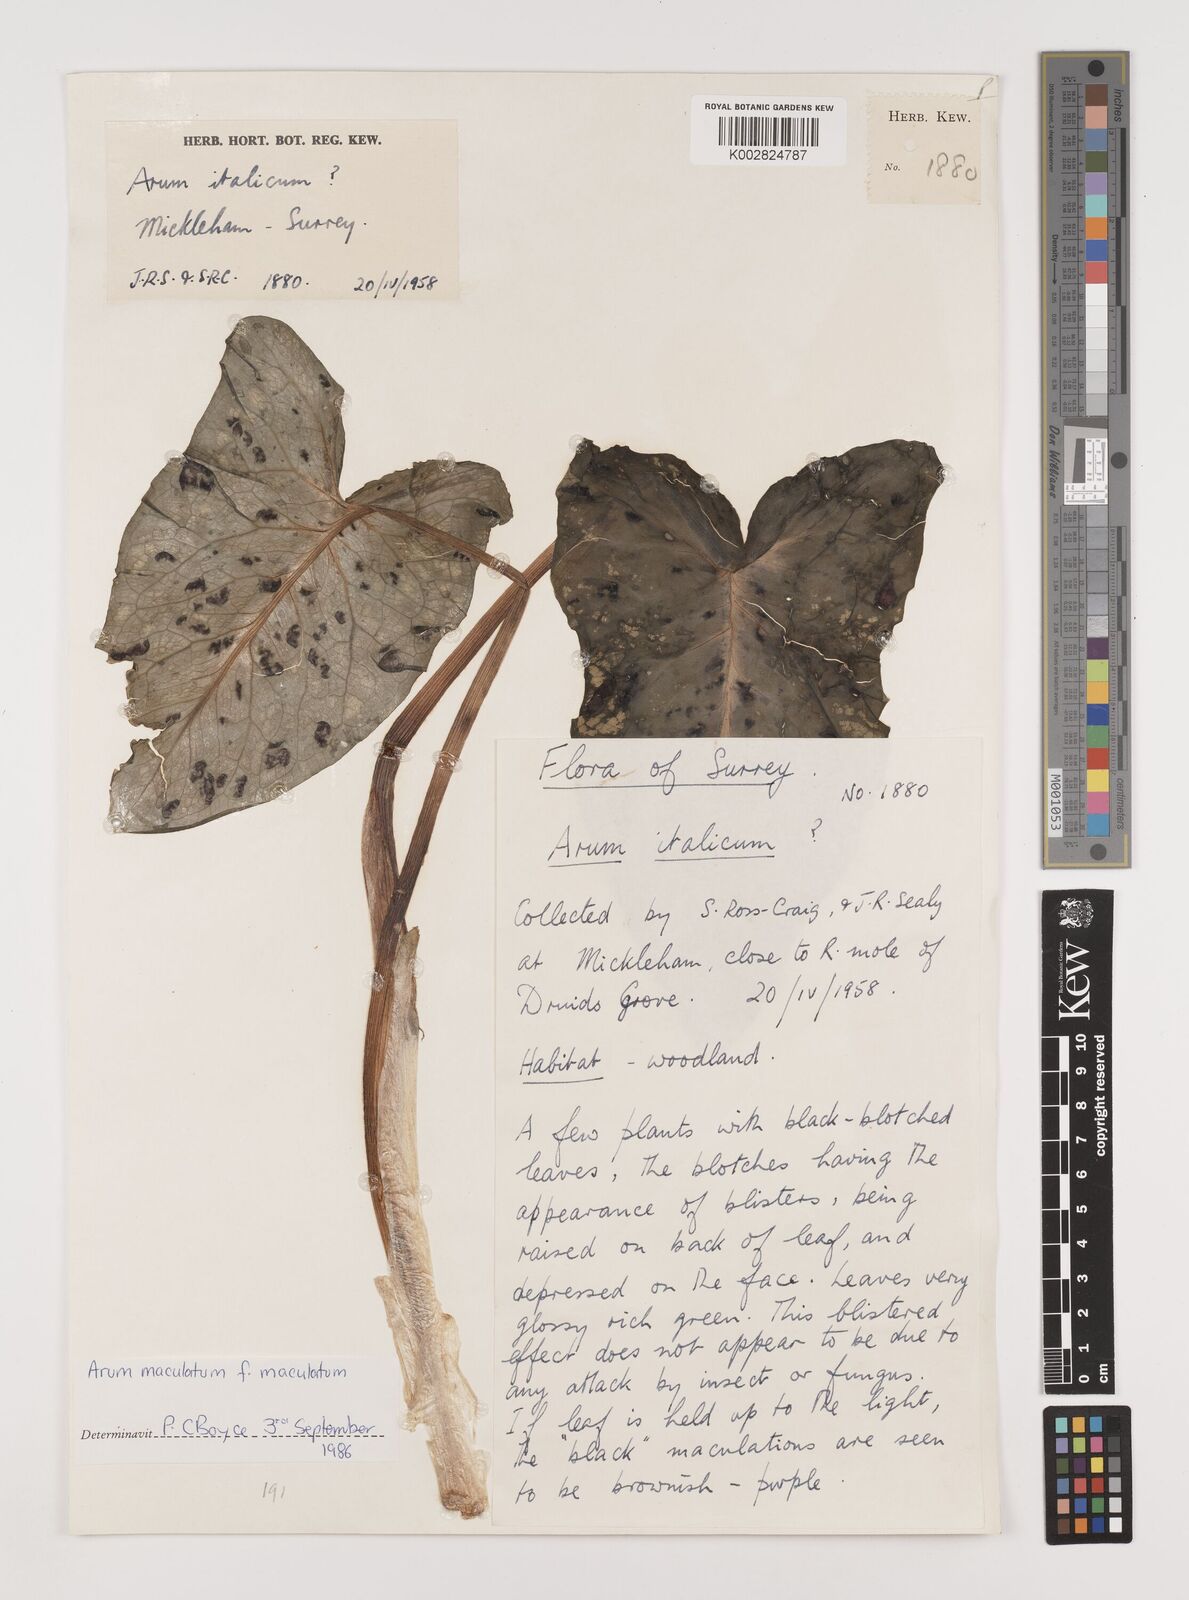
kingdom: Plantae
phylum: Tracheophyta
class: Liliopsida
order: Alismatales
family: Araceae
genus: Arum
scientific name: Arum maculatum
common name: Lords-and-ladies
